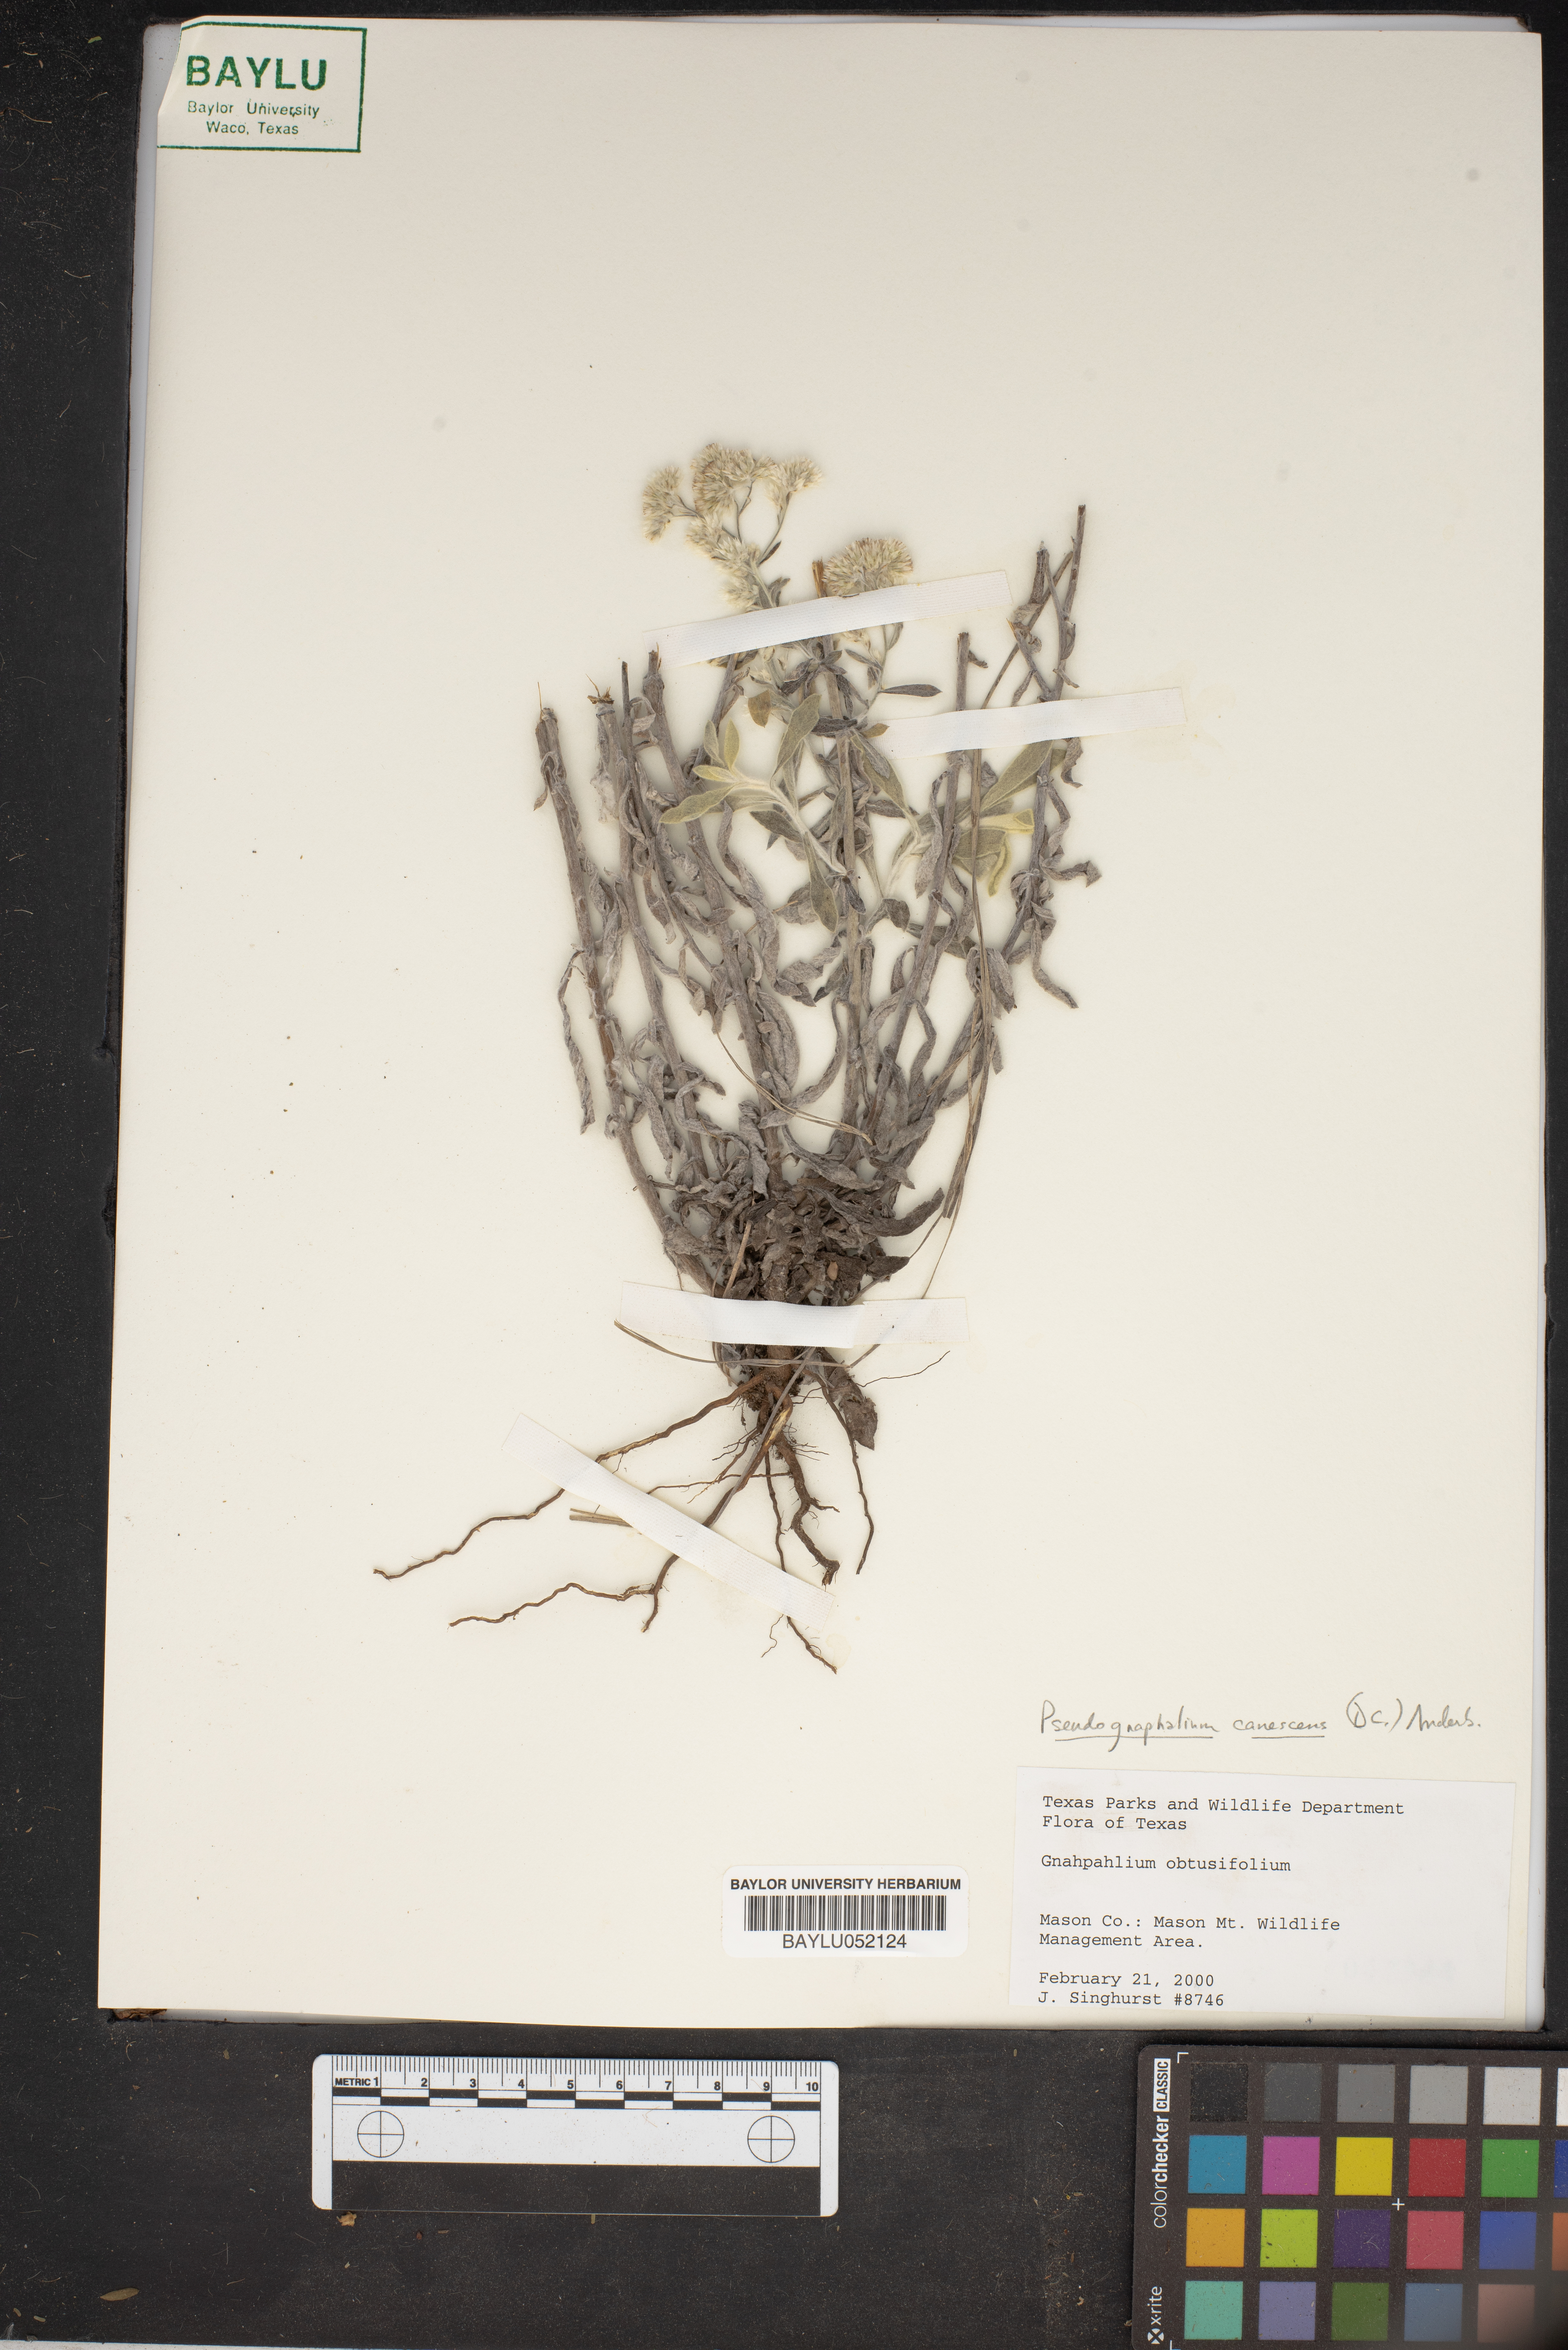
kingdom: Plantae
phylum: Tracheophyta
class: Magnoliopsida
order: Asterales
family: Asteraceae
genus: Pseudognaphalium
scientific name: Pseudognaphalium obtusifolium
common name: Eastern rabbit-tobacco
